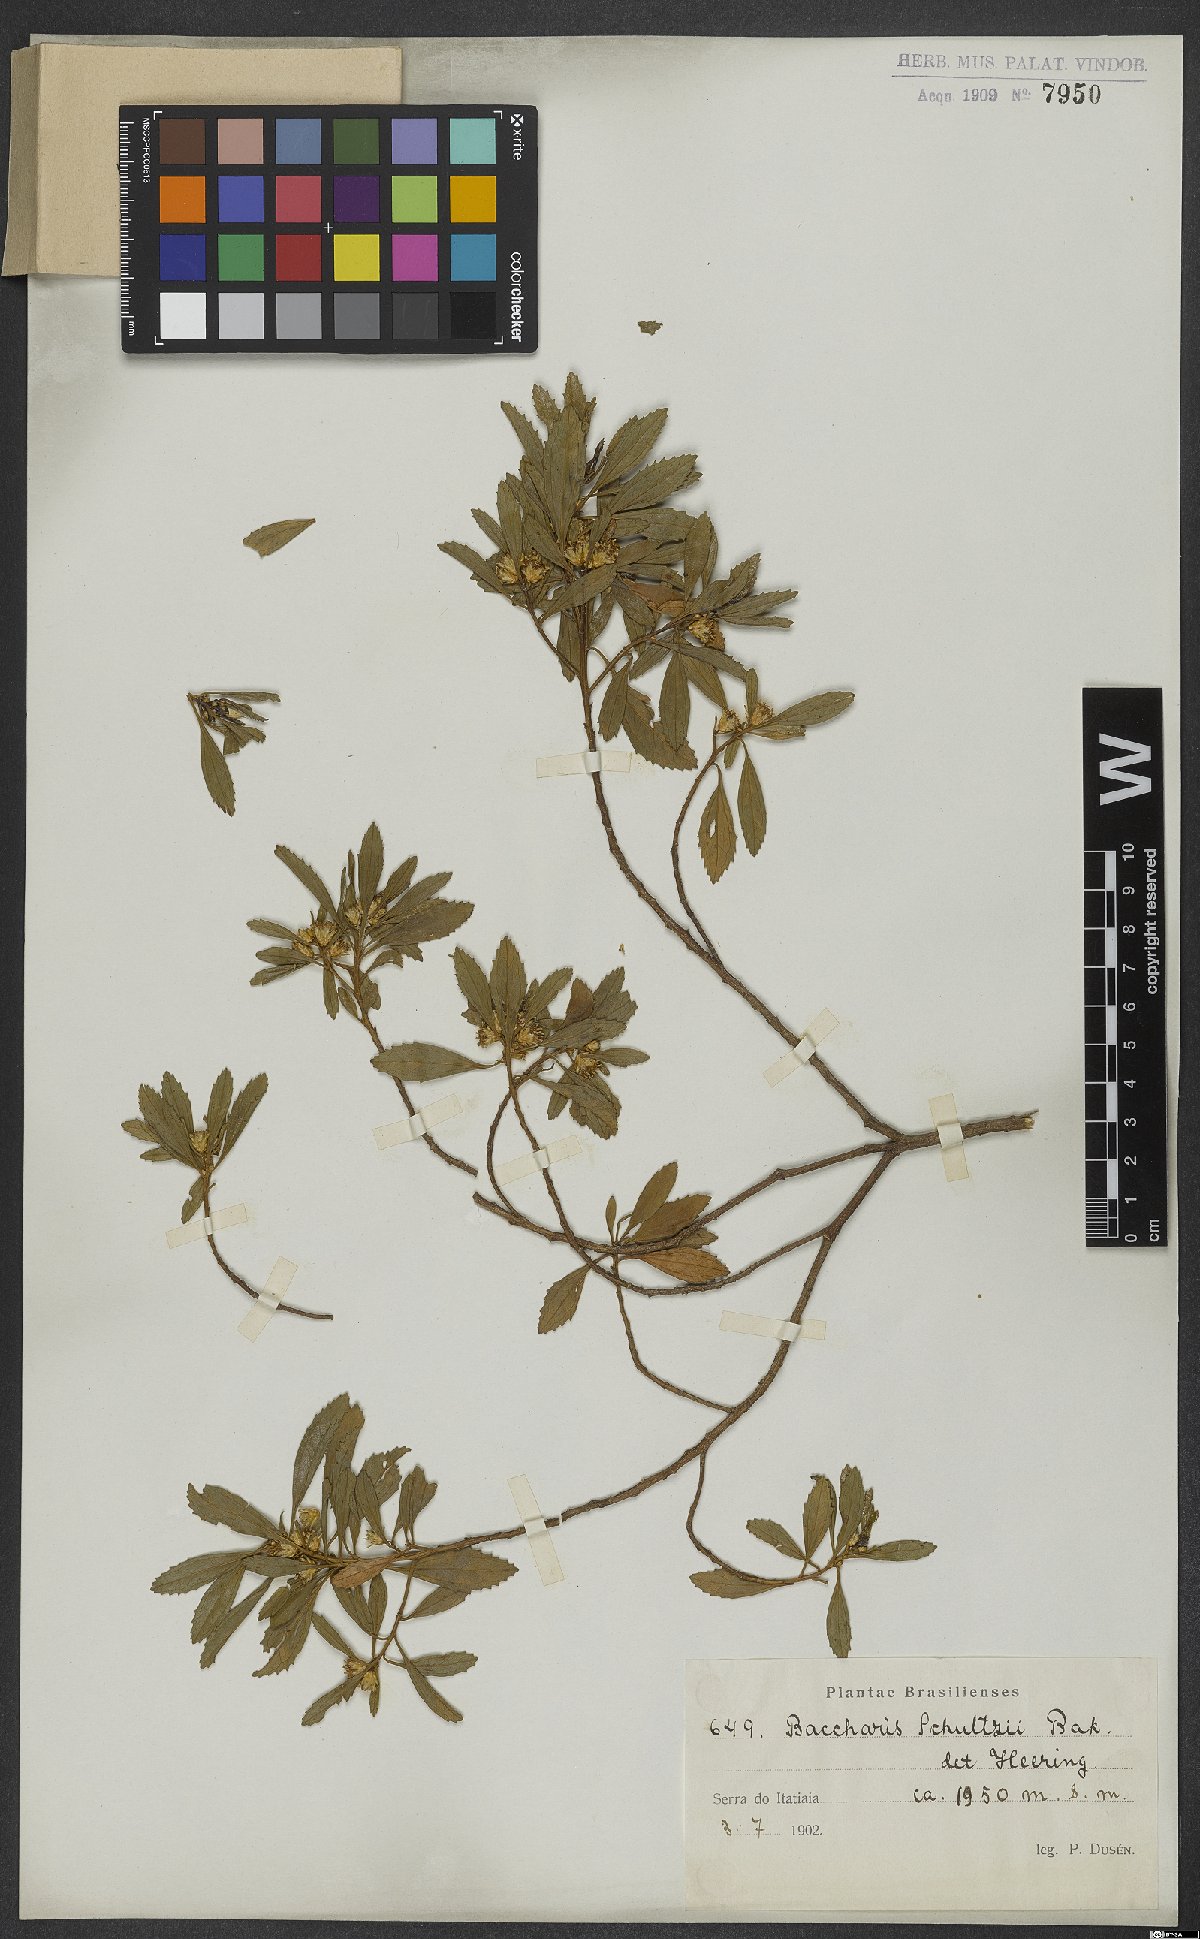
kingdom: Plantae
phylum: Tracheophyta
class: Magnoliopsida
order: Asterales
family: Asteraceae
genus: Baccharis
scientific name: Baccharis lateralis
